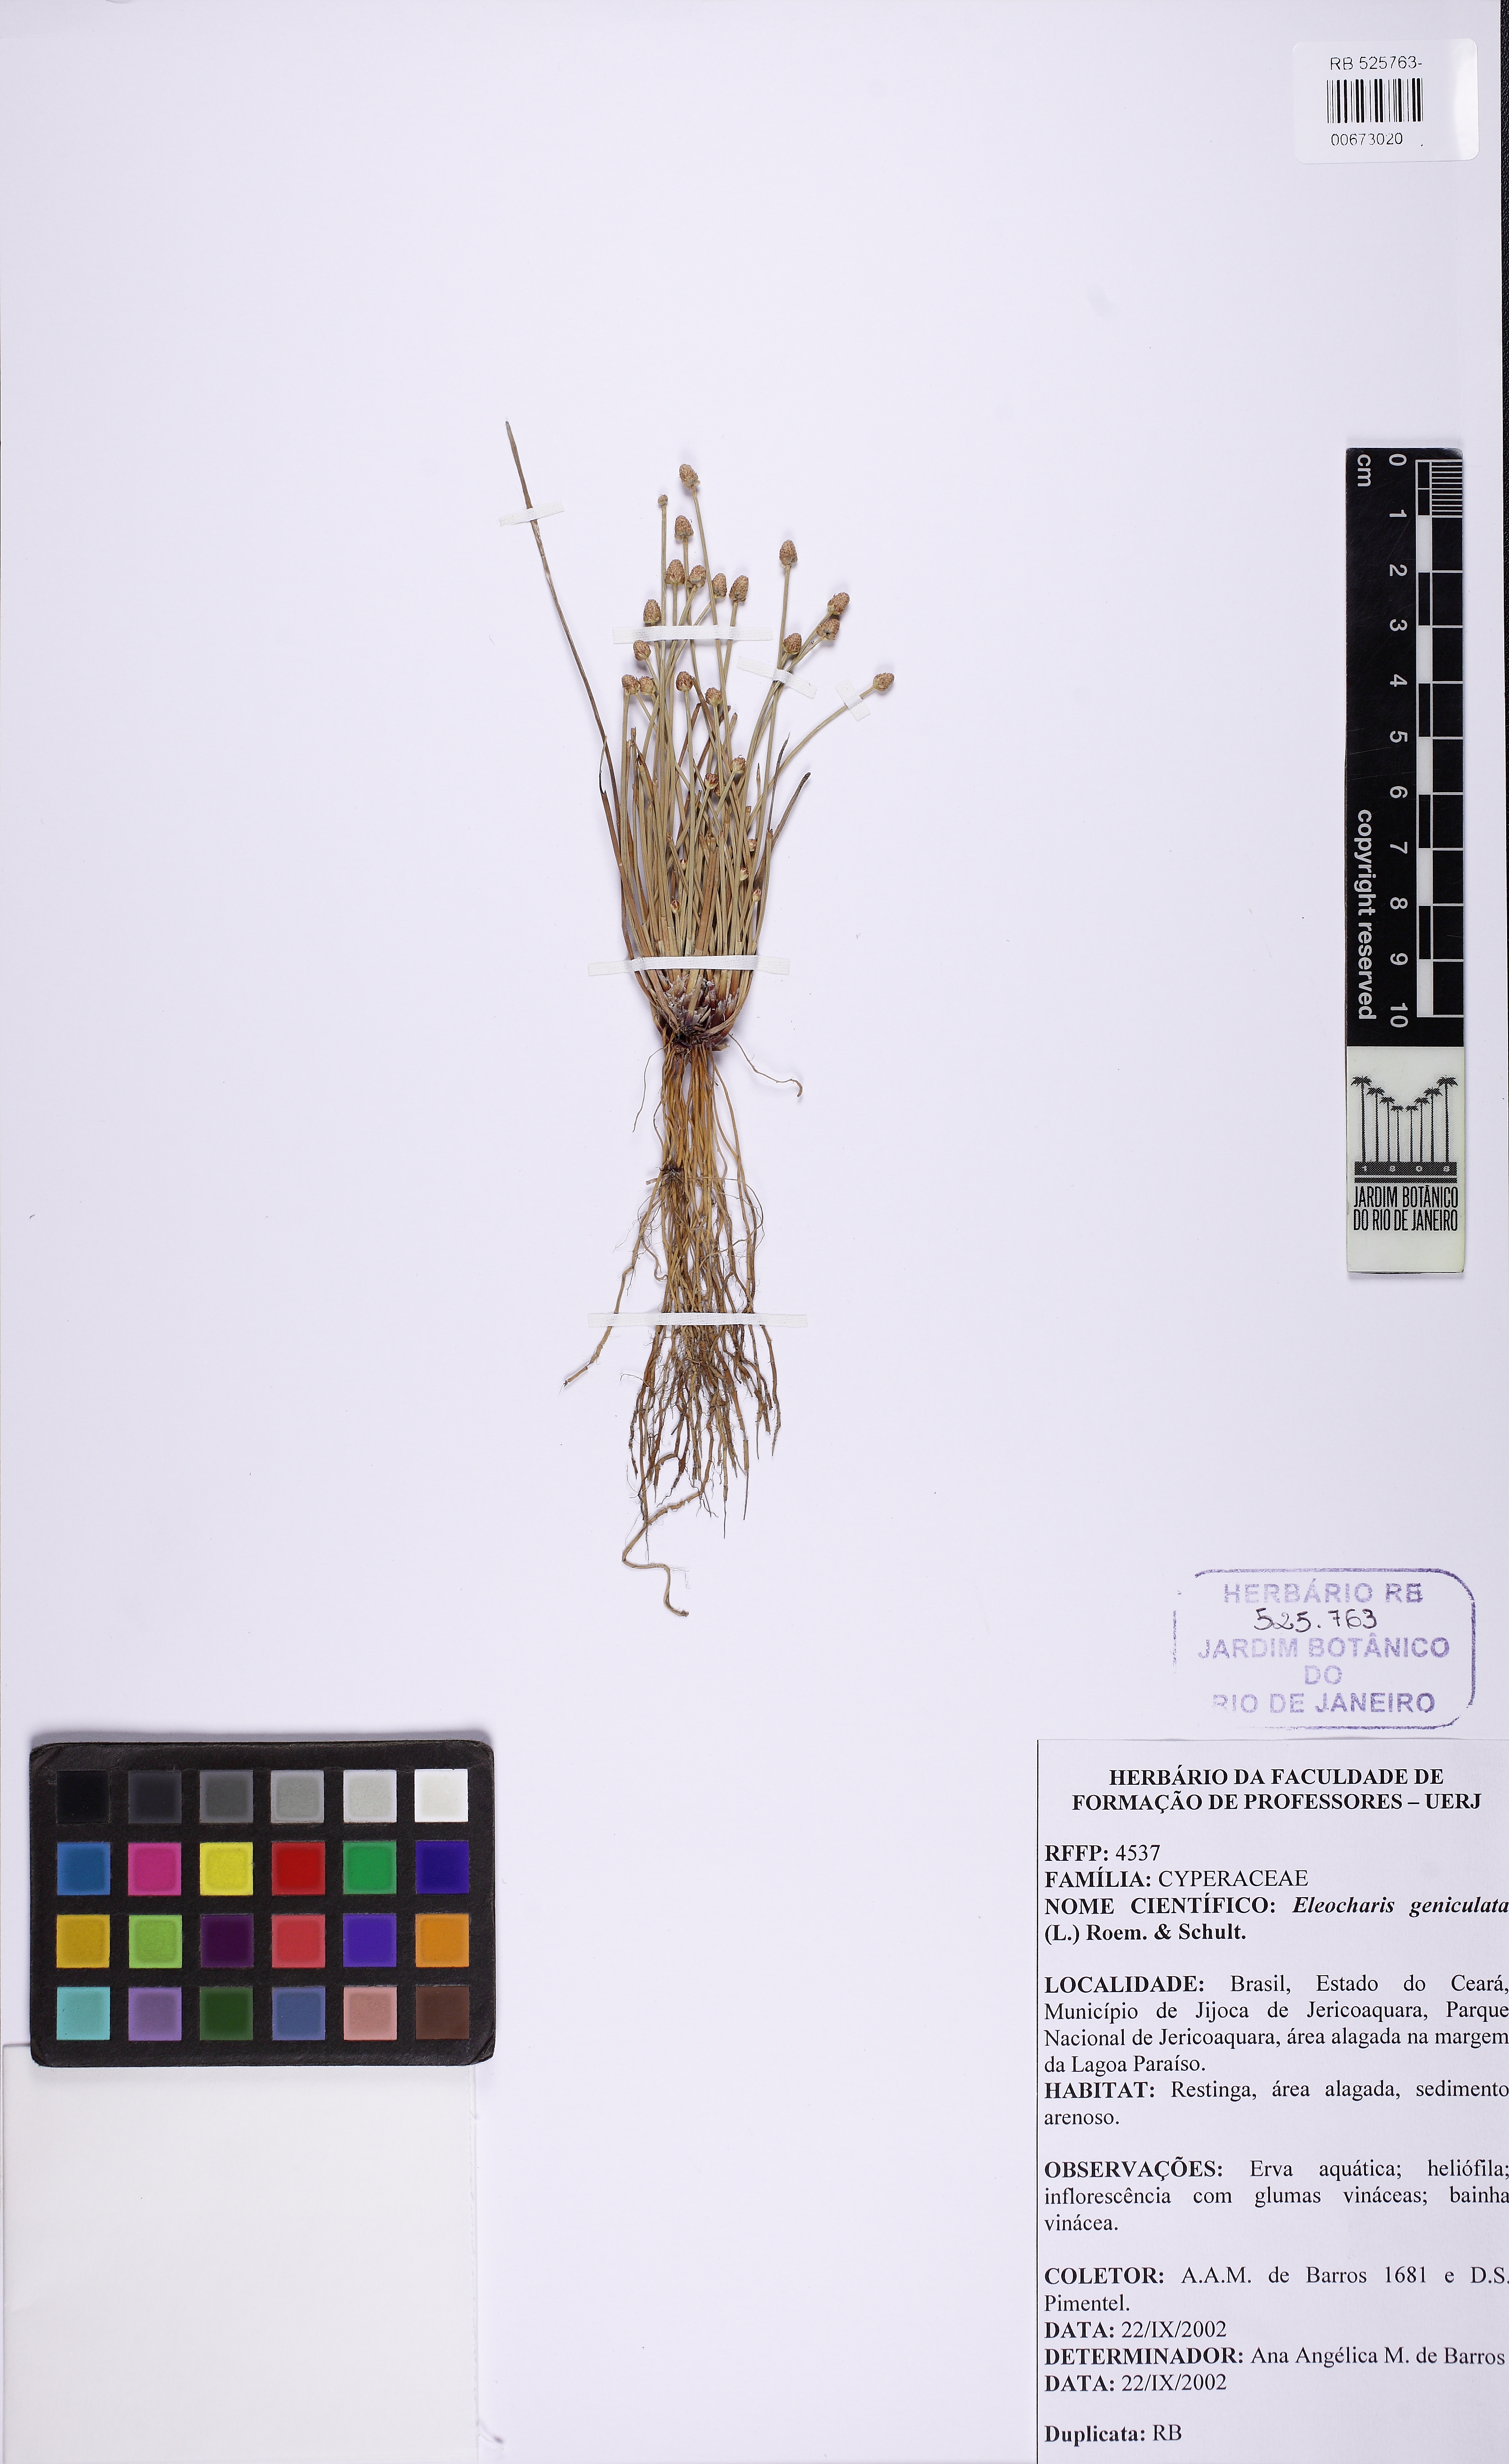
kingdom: Plantae
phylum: Tracheophyta
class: Liliopsida
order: Poales
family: Cyperaceae
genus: Eleocharis
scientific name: Eleocharis geniculata
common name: Canada spikesedge
